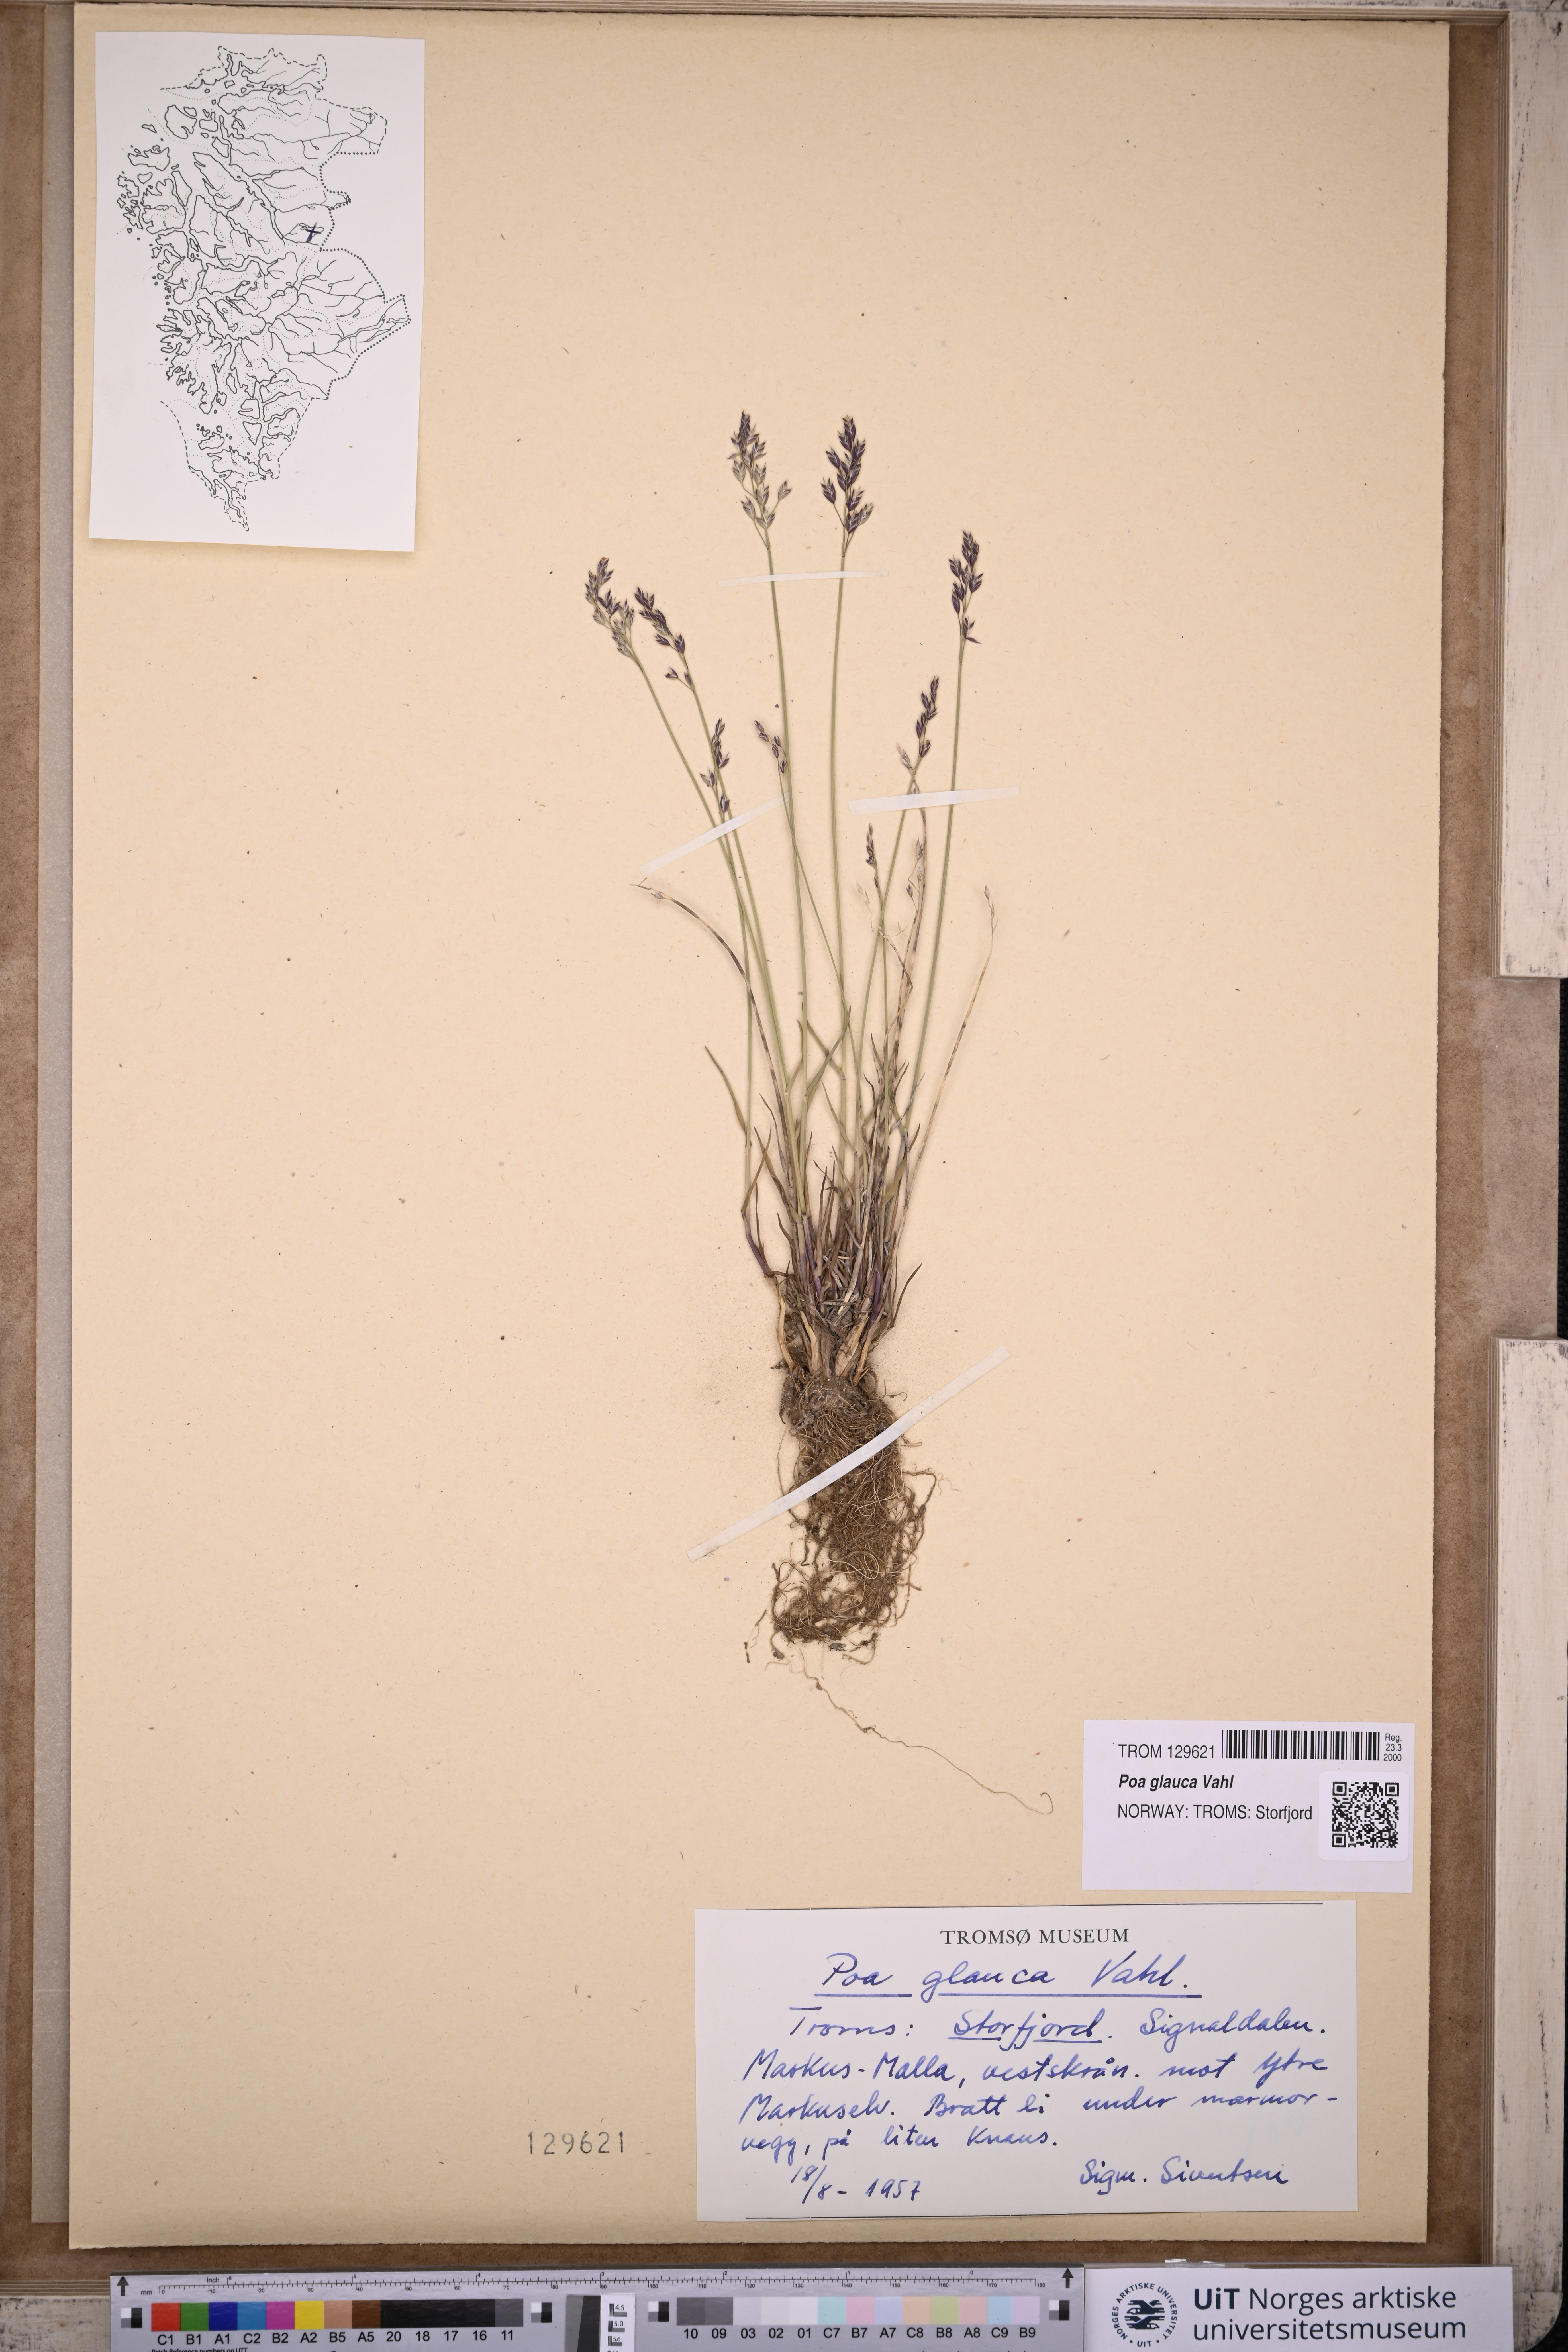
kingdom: Plantae
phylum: Tracheophyta
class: Liliopsida
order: Poales
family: Poaceae
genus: Poa
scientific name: Poa glauca
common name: Glaucous bluegrass
